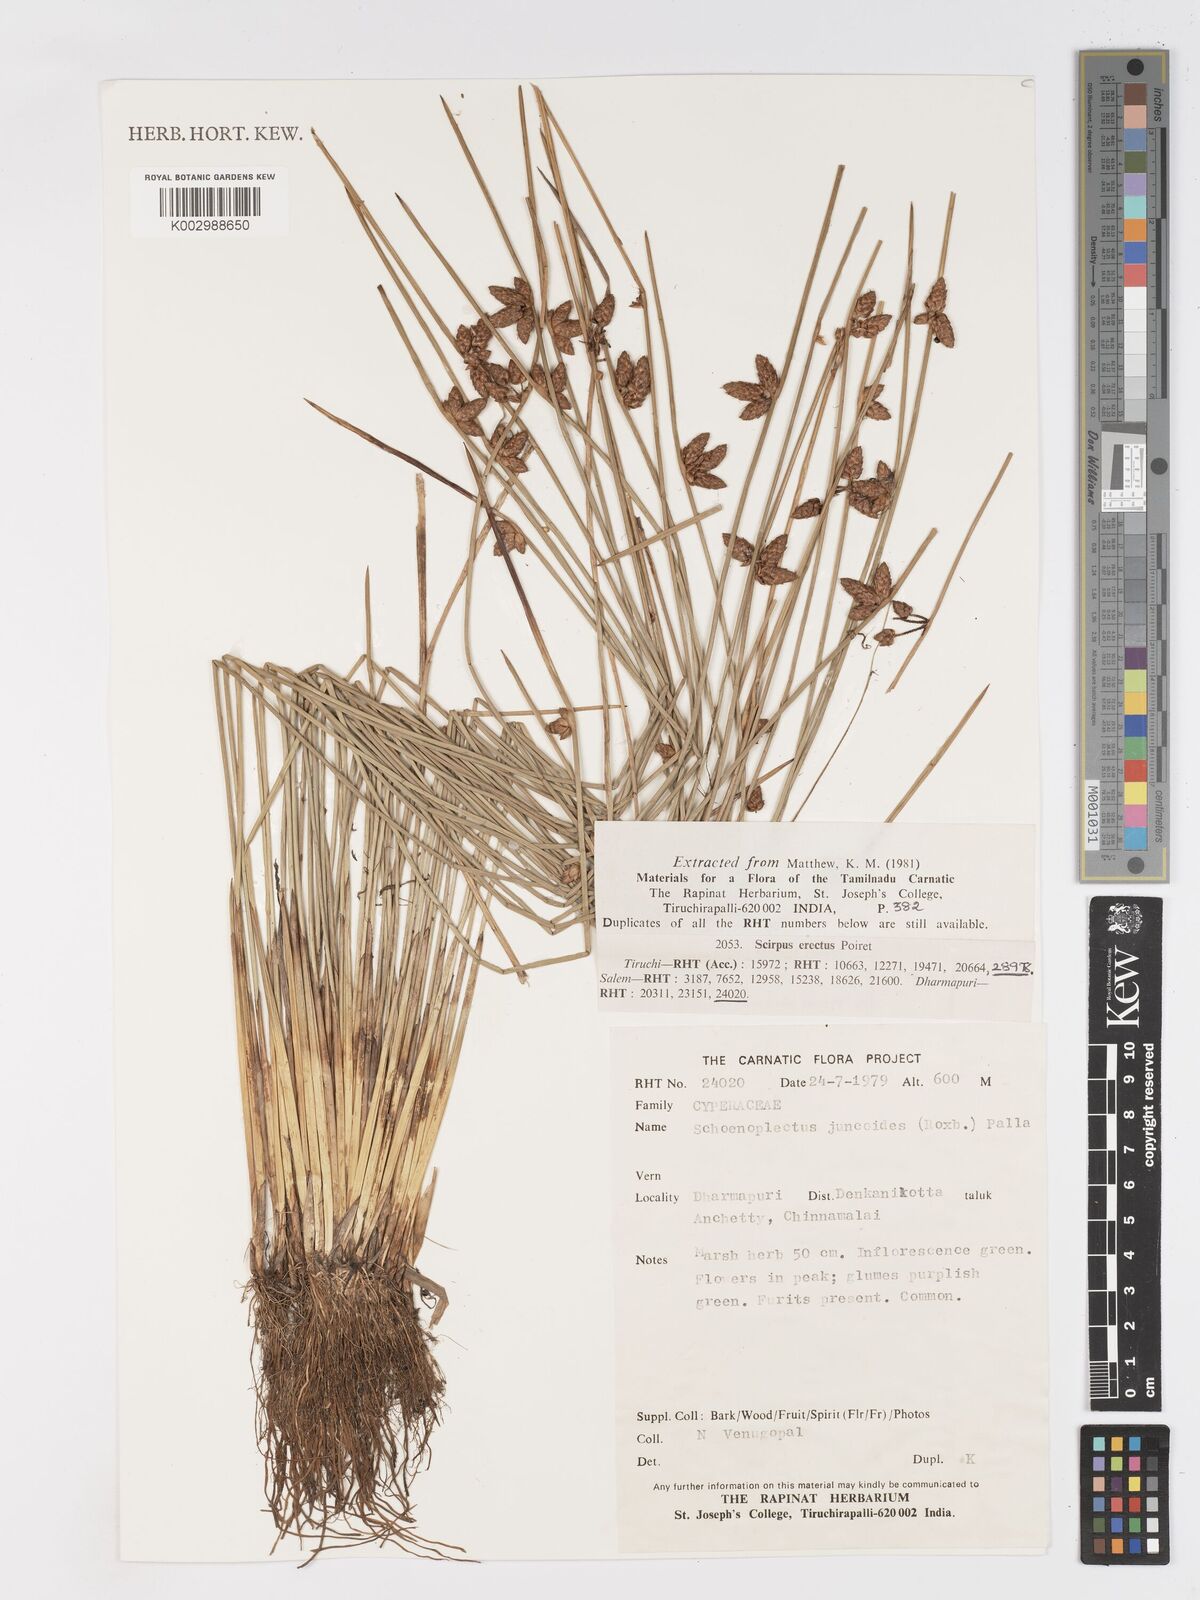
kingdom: Plantae
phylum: Tracheophyta
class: Liliopsida
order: Poales
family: Cyperaceae
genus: Schoenoplectiella
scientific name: Schoenoplectiella juncoides
